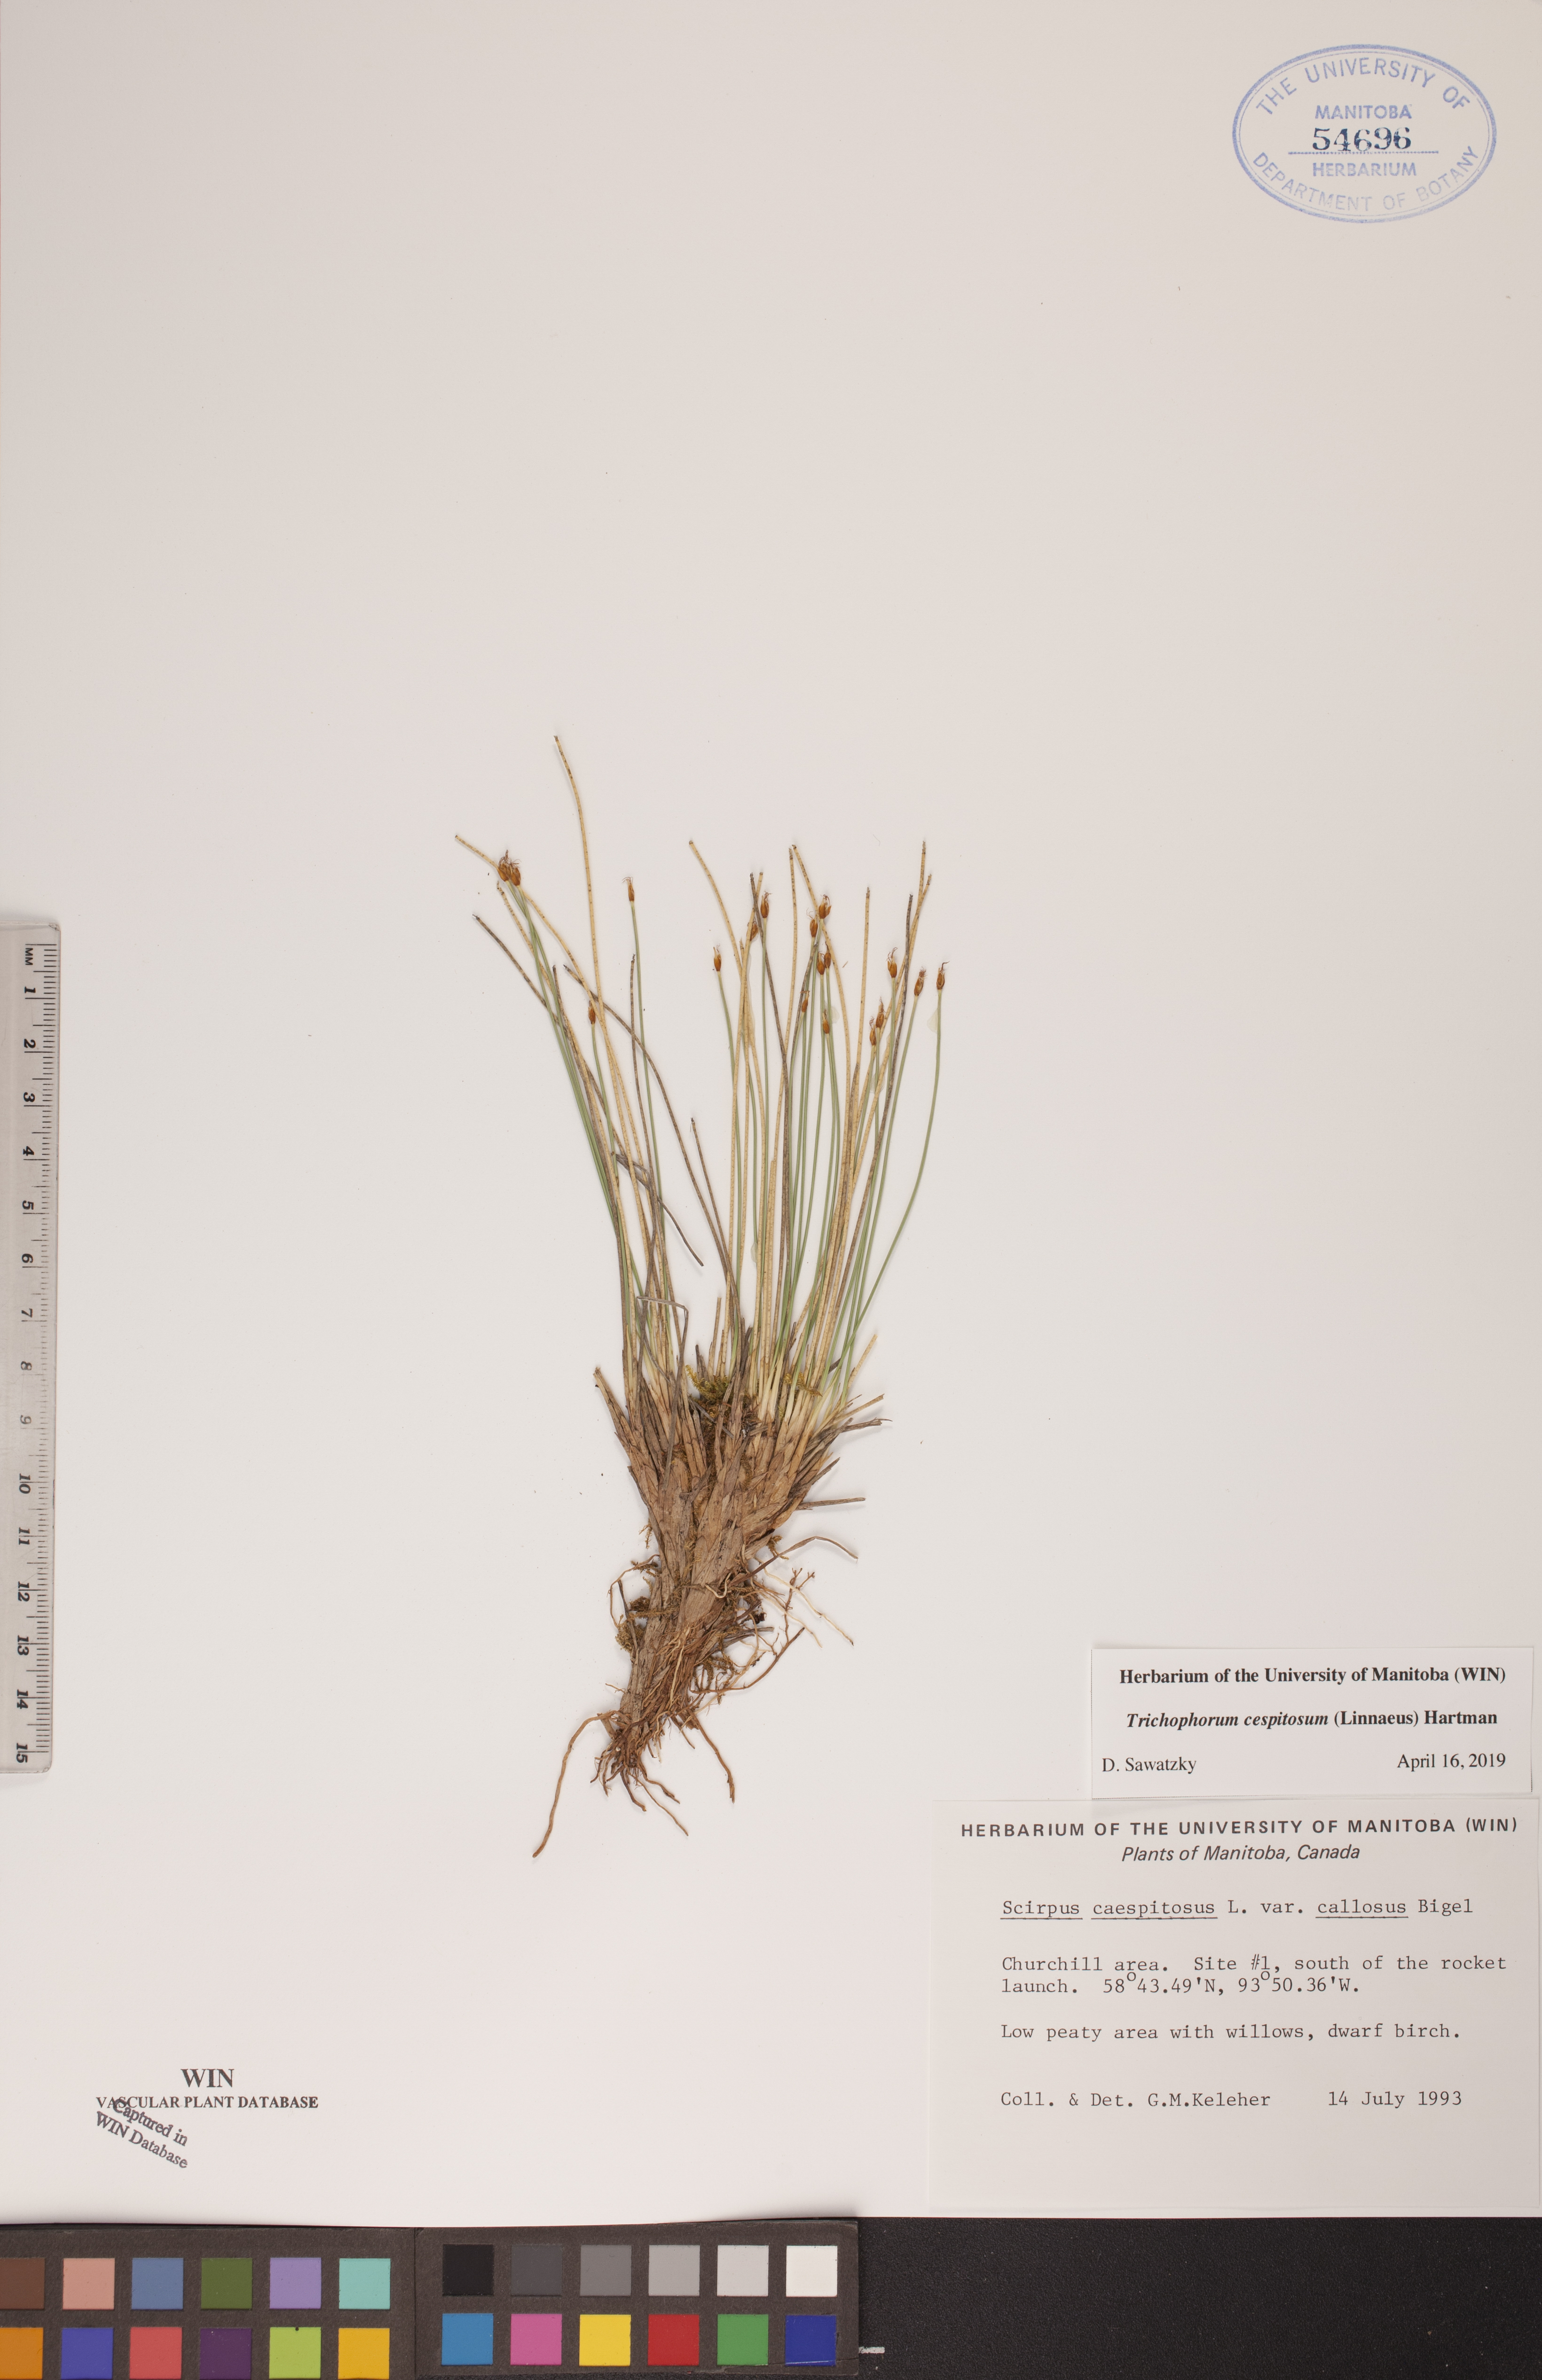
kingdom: Plantae
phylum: Tracheophyta
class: Liliopsida
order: Poales
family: Cyperaceae
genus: Trichophorum
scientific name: Trichophorum cespitosum
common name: Cespitose bulrush
